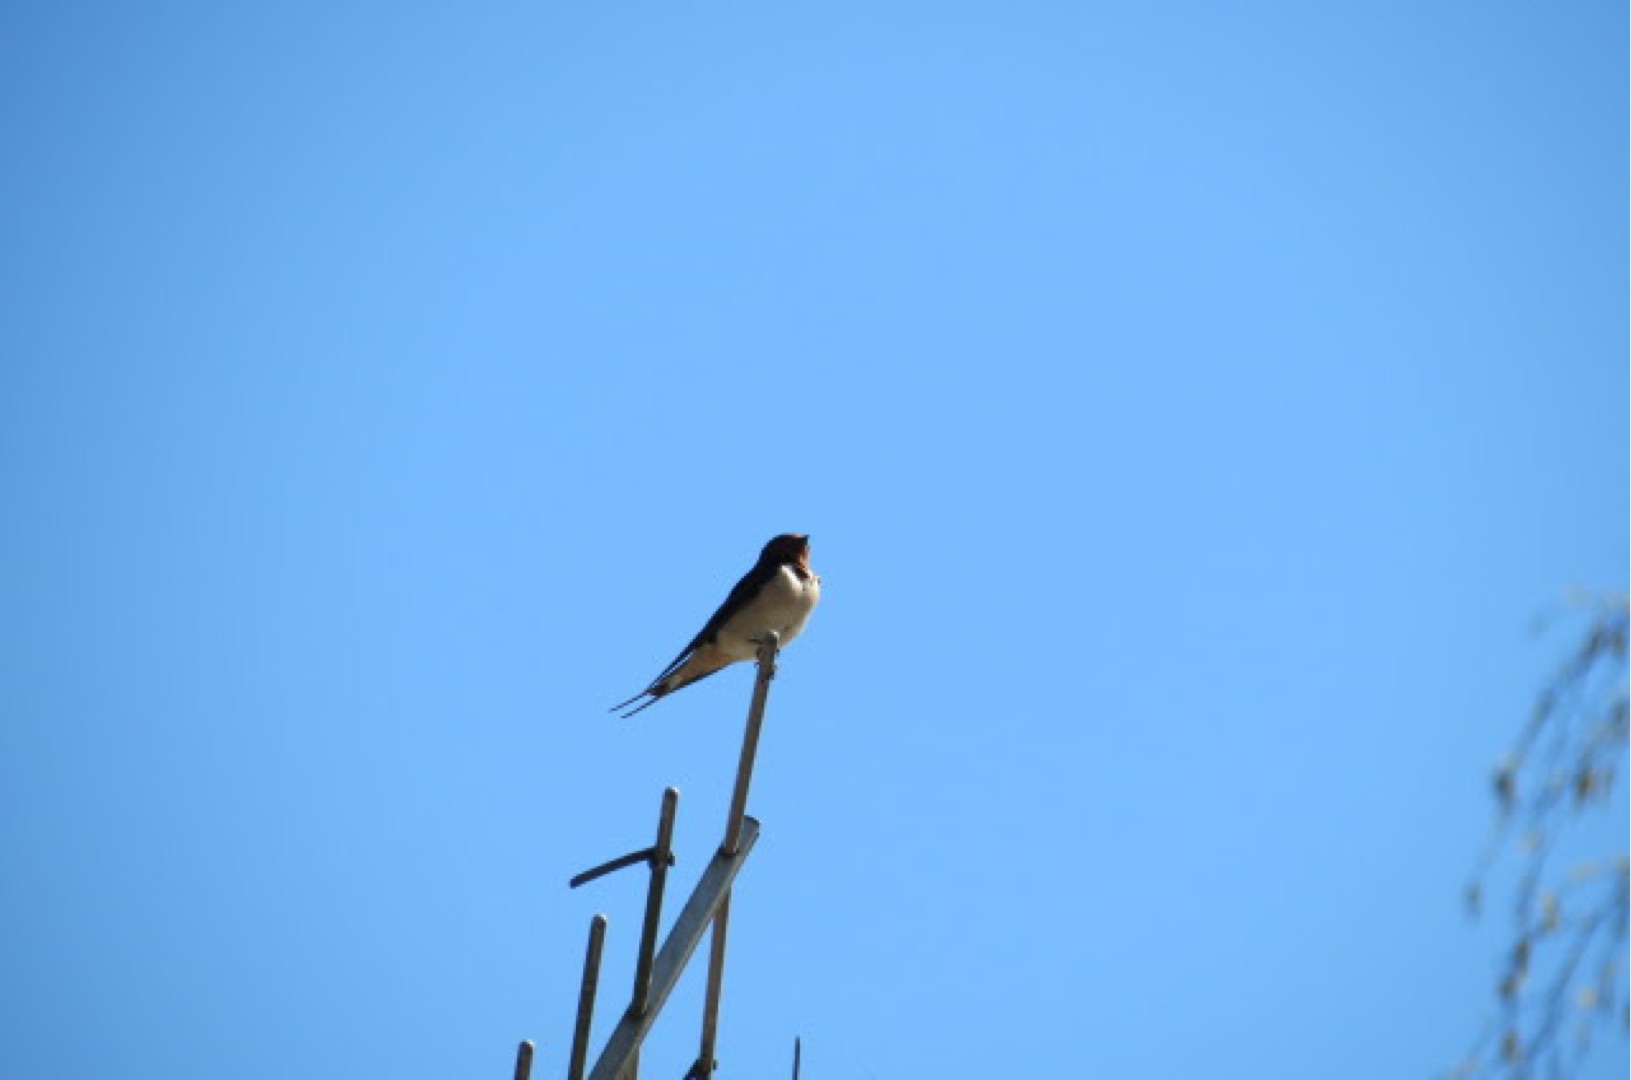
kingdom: Animalia
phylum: Chordata
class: Aves
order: Passeriformes
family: Hirundinidae
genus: Hirundo
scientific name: Hirundo rustica
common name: Landsvale
